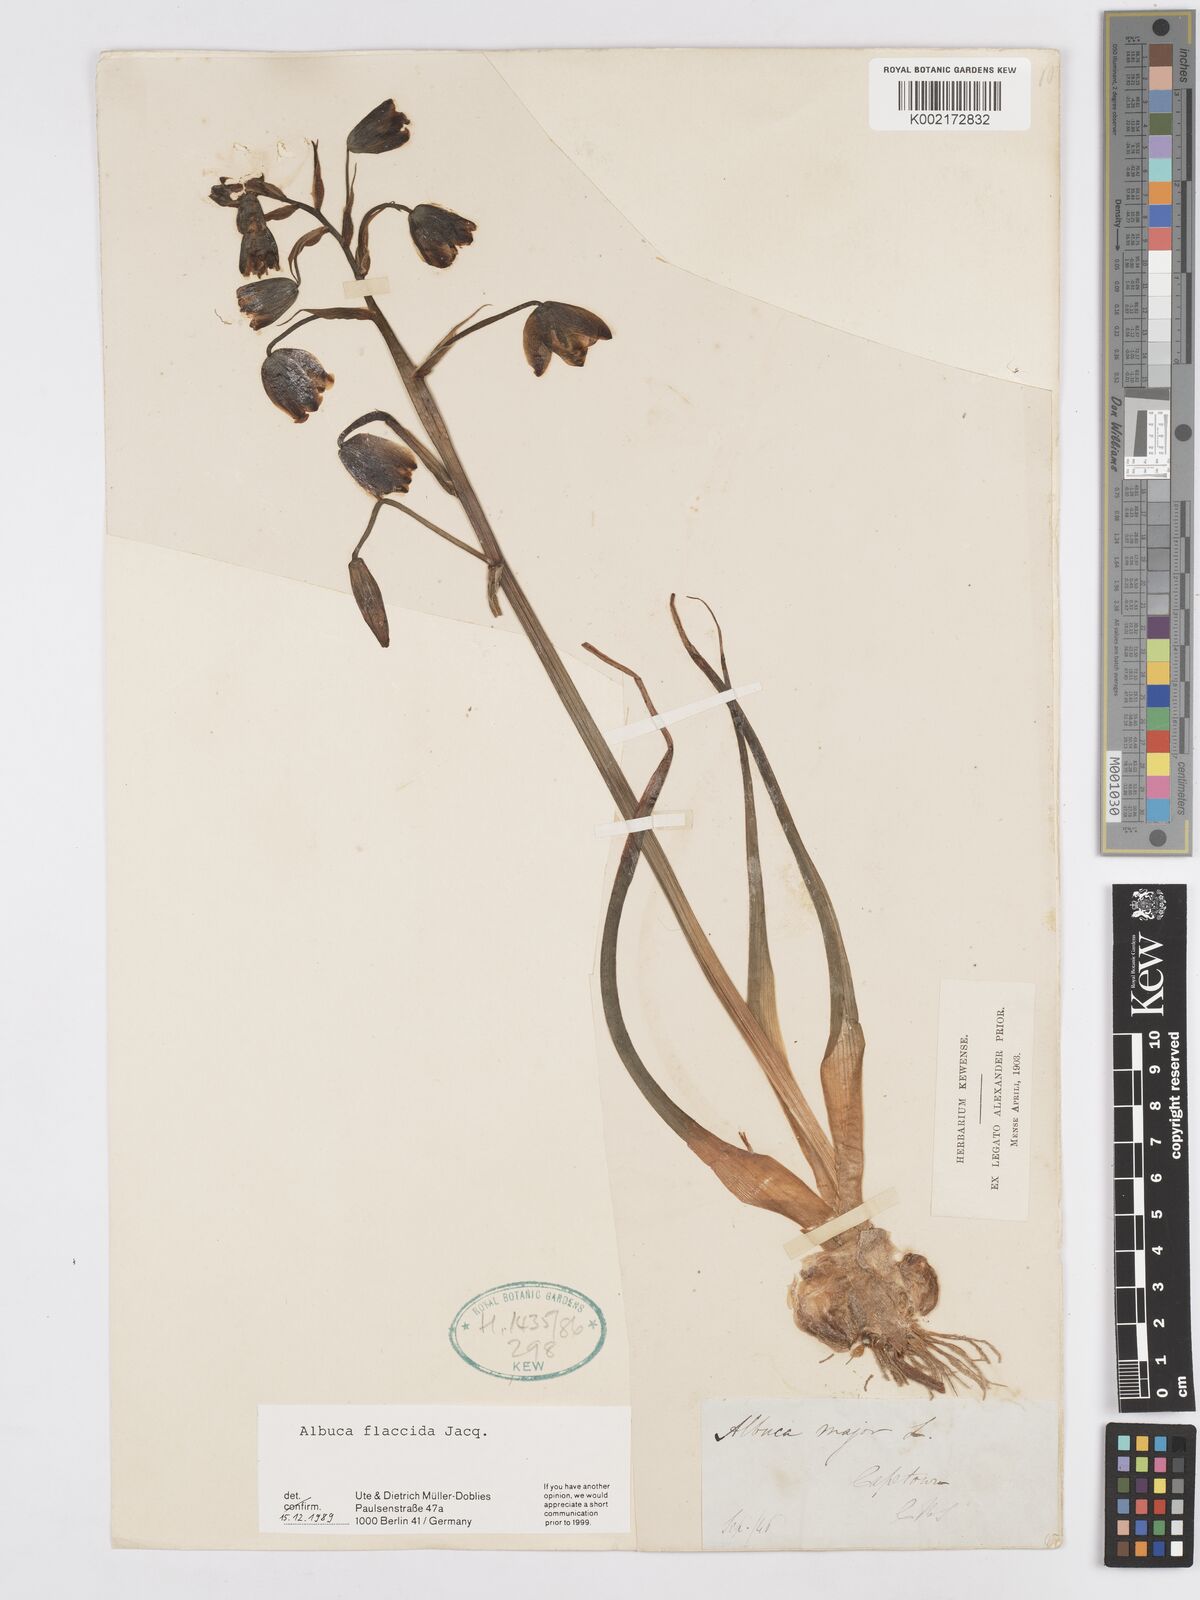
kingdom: Plantae
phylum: Tracheophyta
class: Liliopsida
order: Asparagales
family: Asparagaceae
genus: Albuca
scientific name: Albuca flaccida
